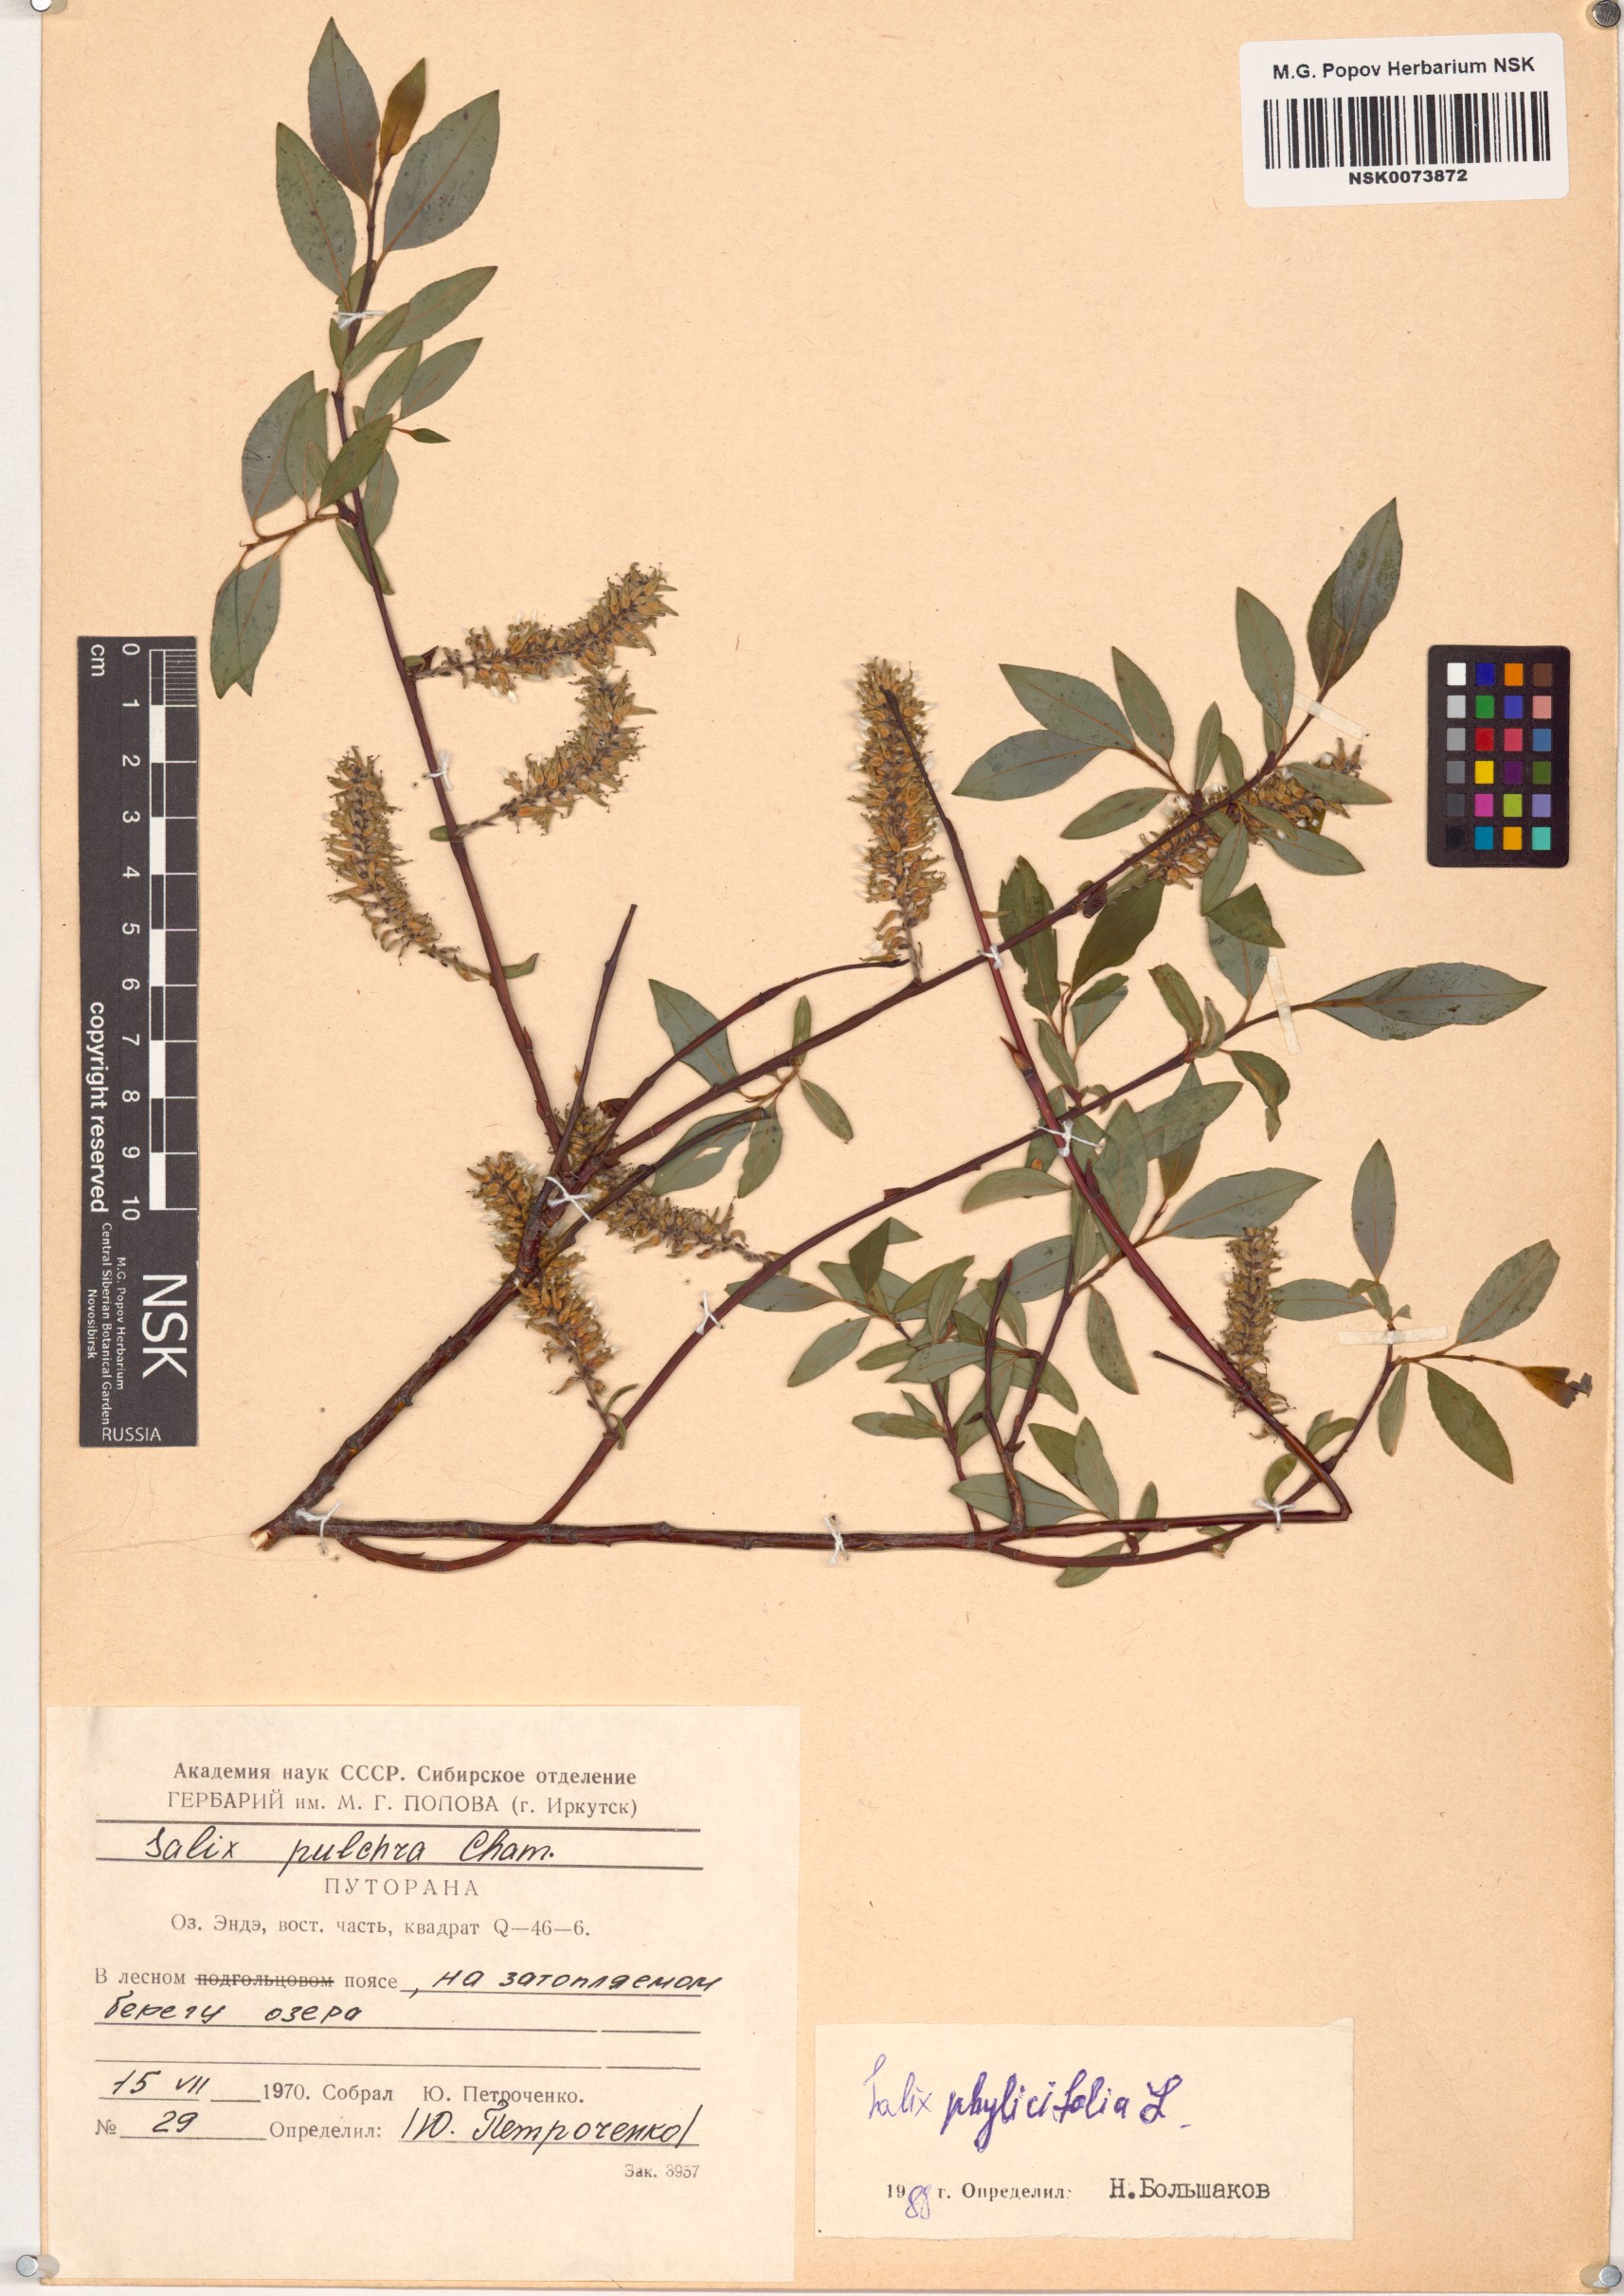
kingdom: Plantae
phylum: Tracheophyta
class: Magnoliopsida
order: Malpighiales
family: Salicaceae
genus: Salix
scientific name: Salix phylicifolia
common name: Tea-leaved willow
